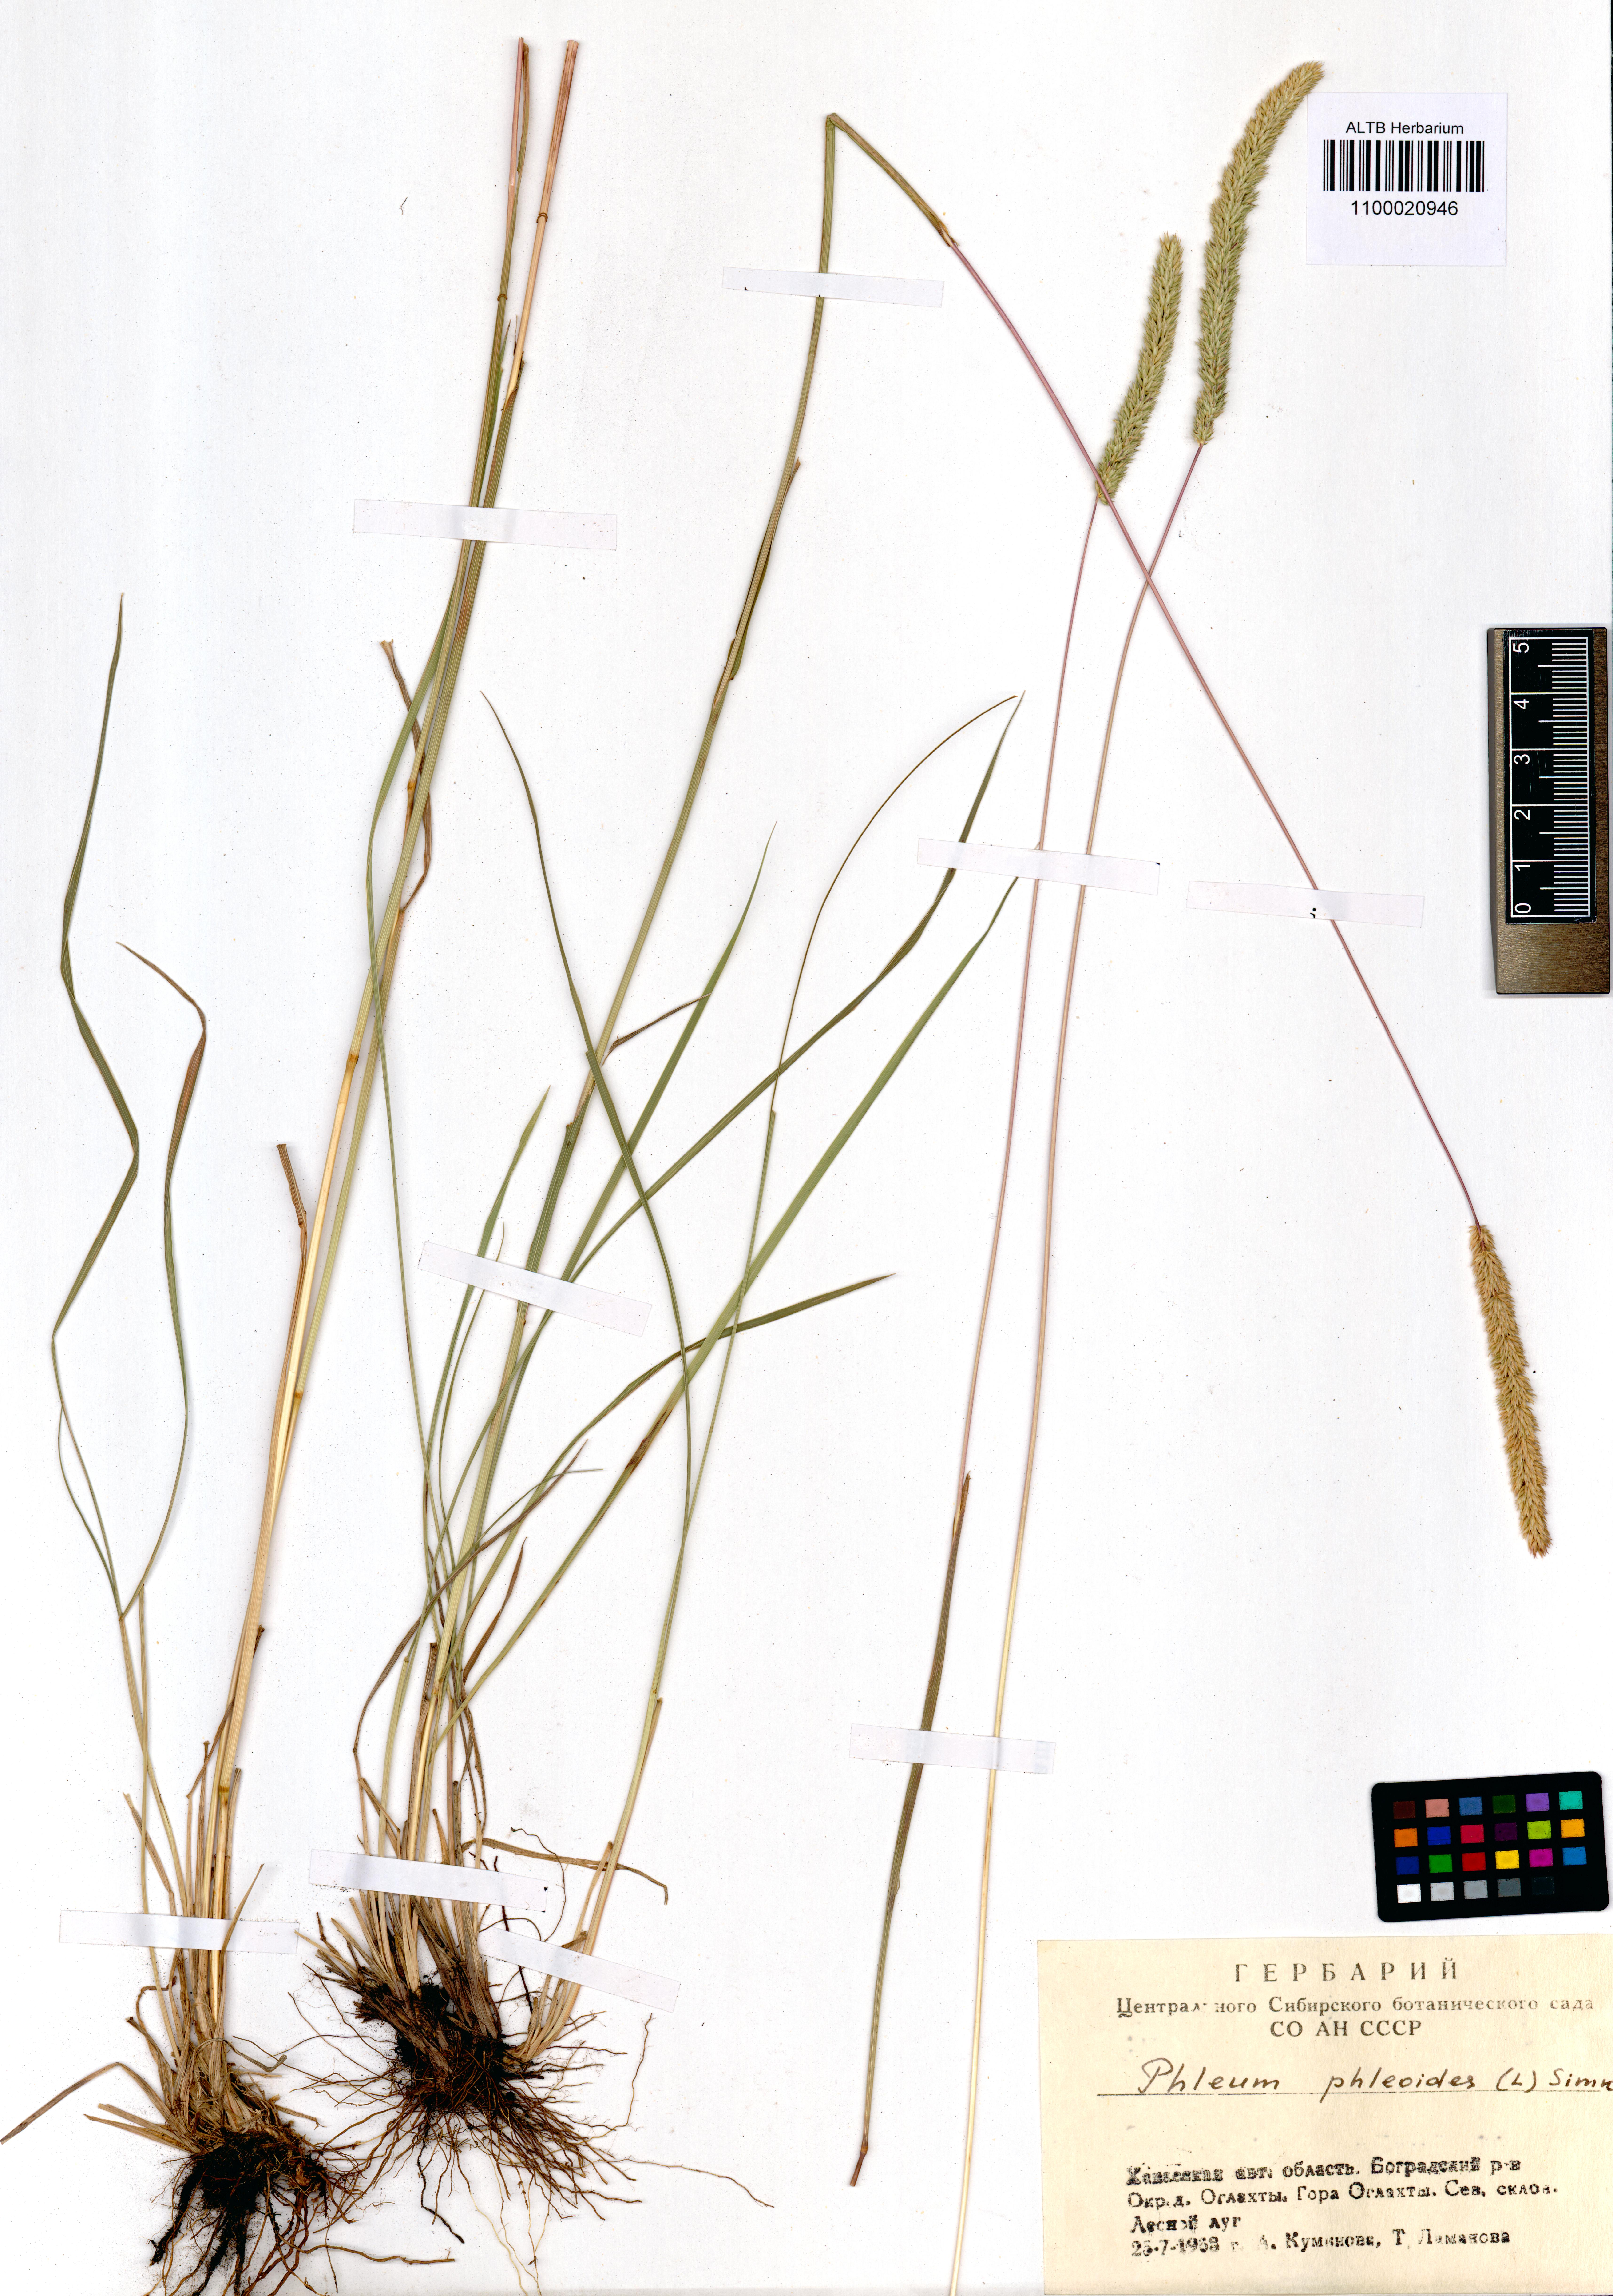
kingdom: Plantae
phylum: Tracheophyta
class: Liliopsida
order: Poales
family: Poaceae
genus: Phleum
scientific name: Phleum phleoides
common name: Purple-stem cat's-tail
